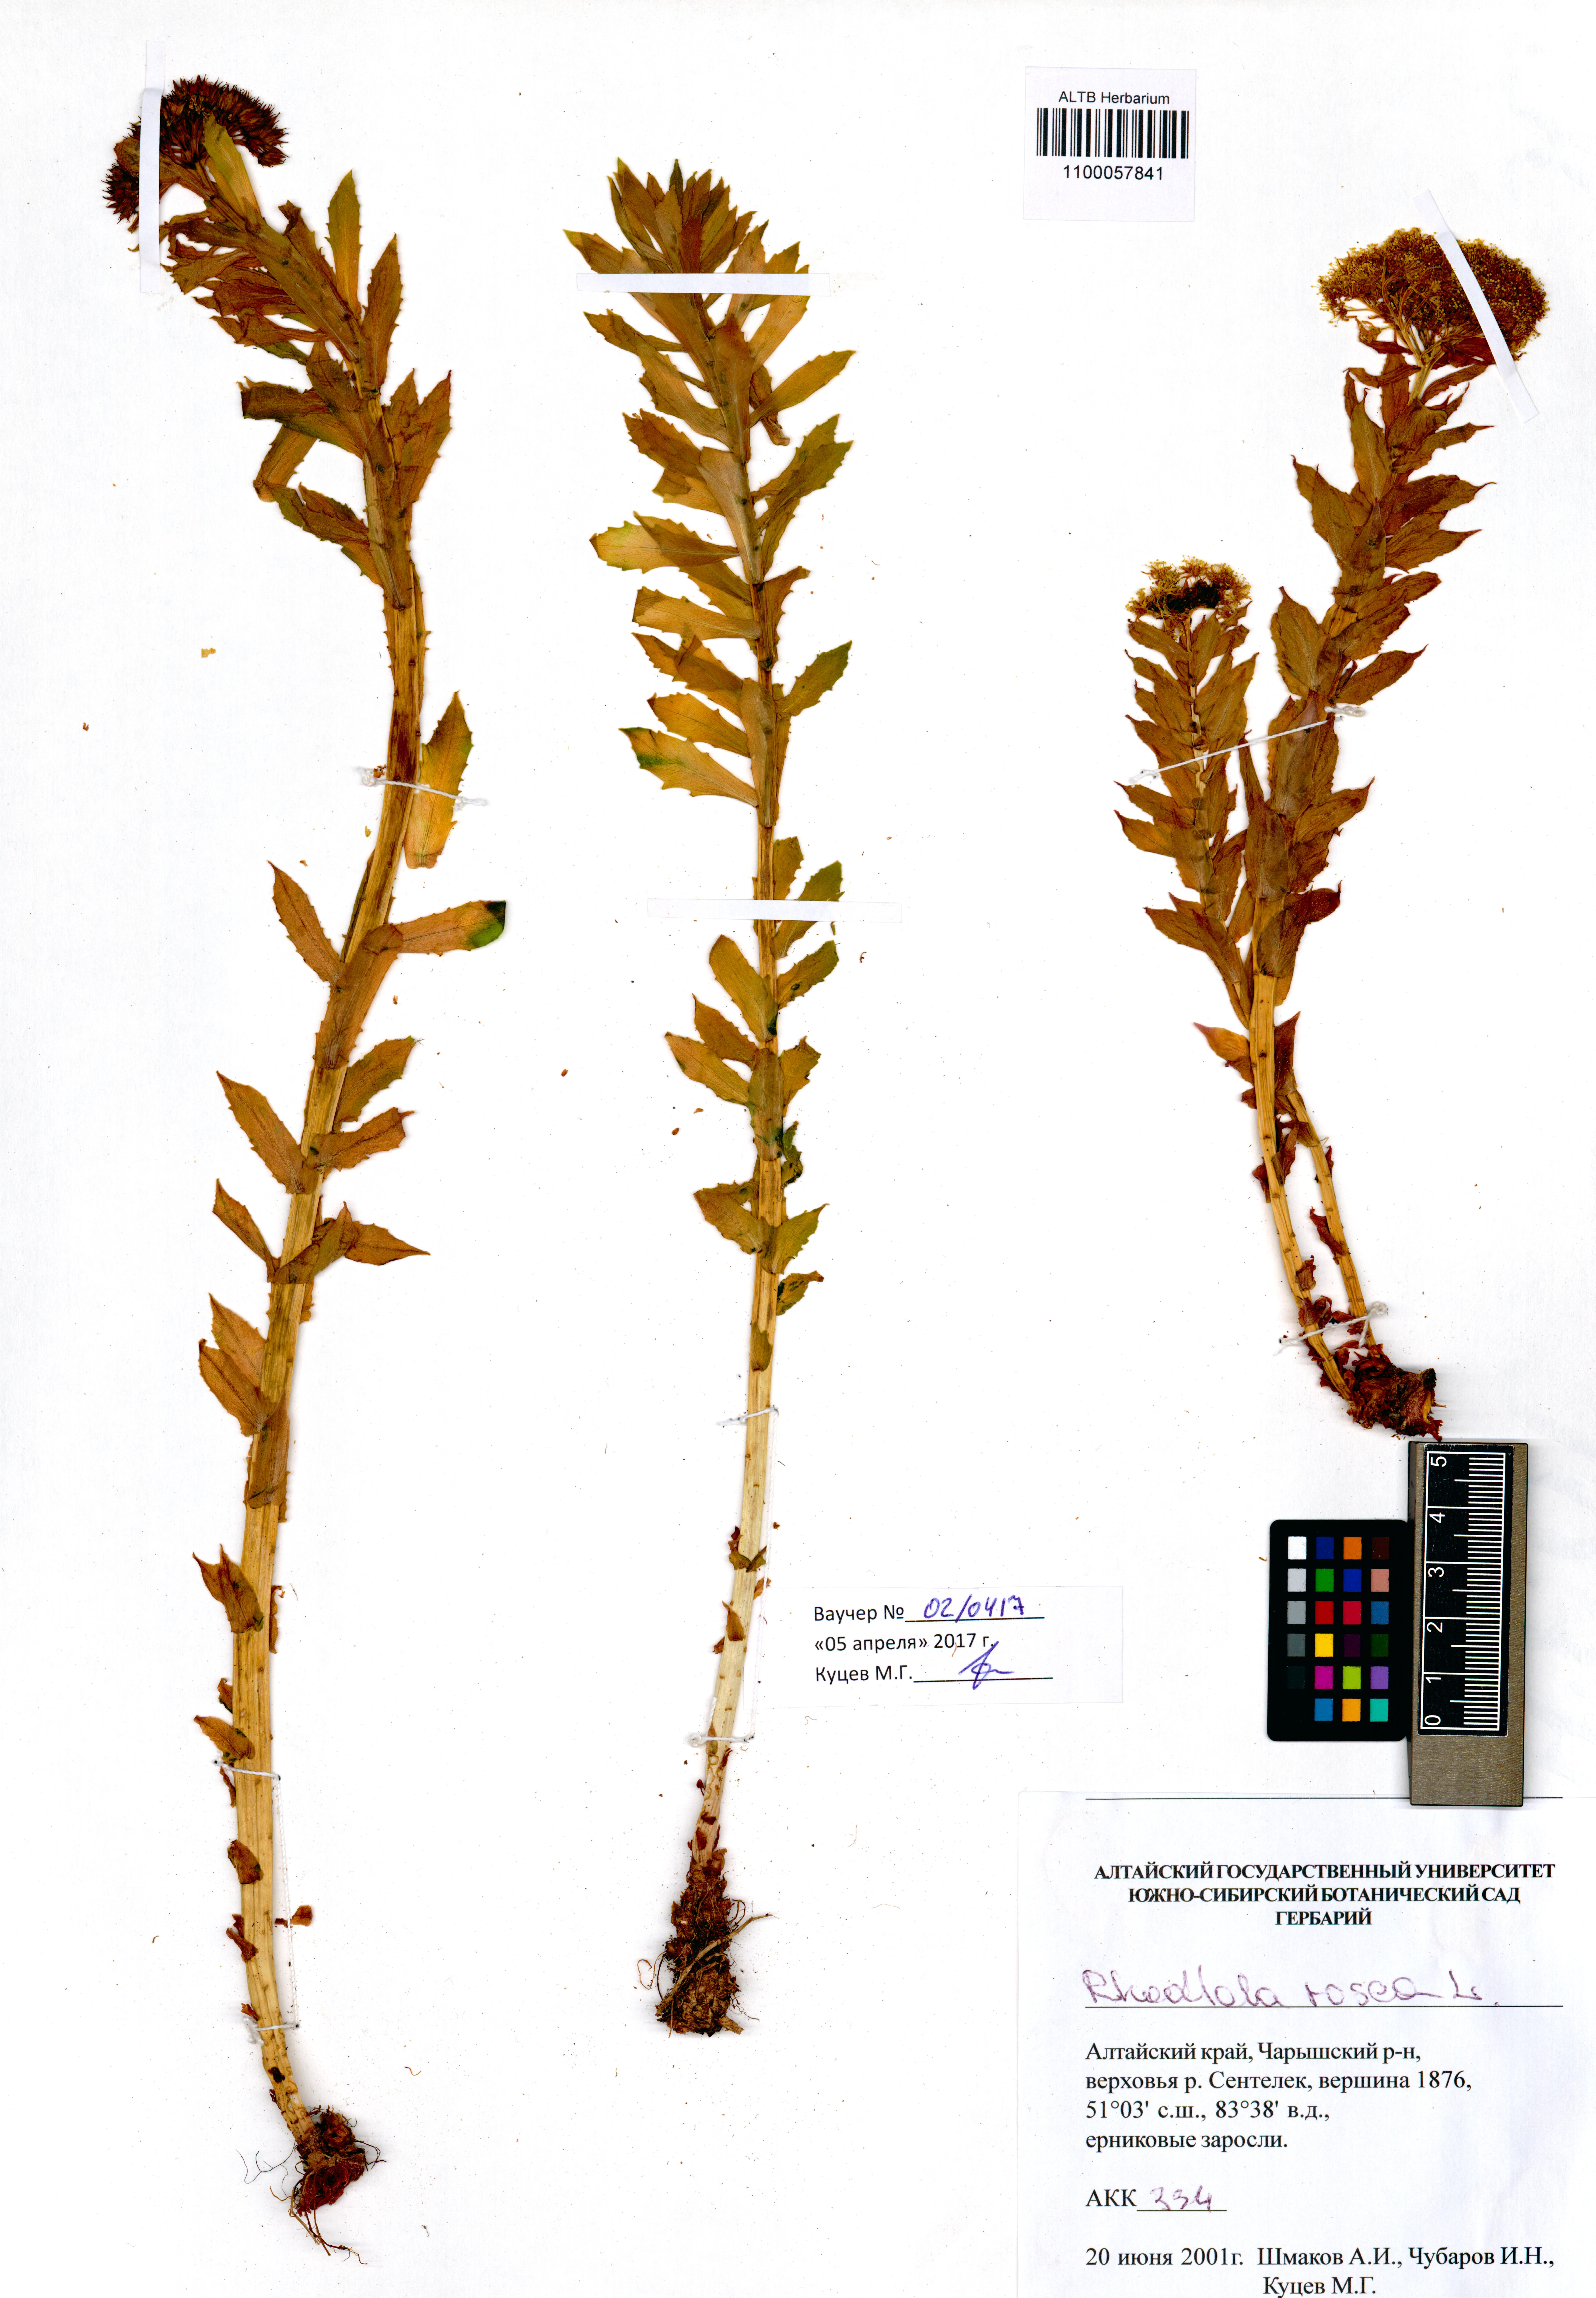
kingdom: Plantae
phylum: Tracheophyta
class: Magnoliopsida
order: Saxifragales
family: Crassulaceae
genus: Rhodiola
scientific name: Rhodiola rosea
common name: Roseroot
